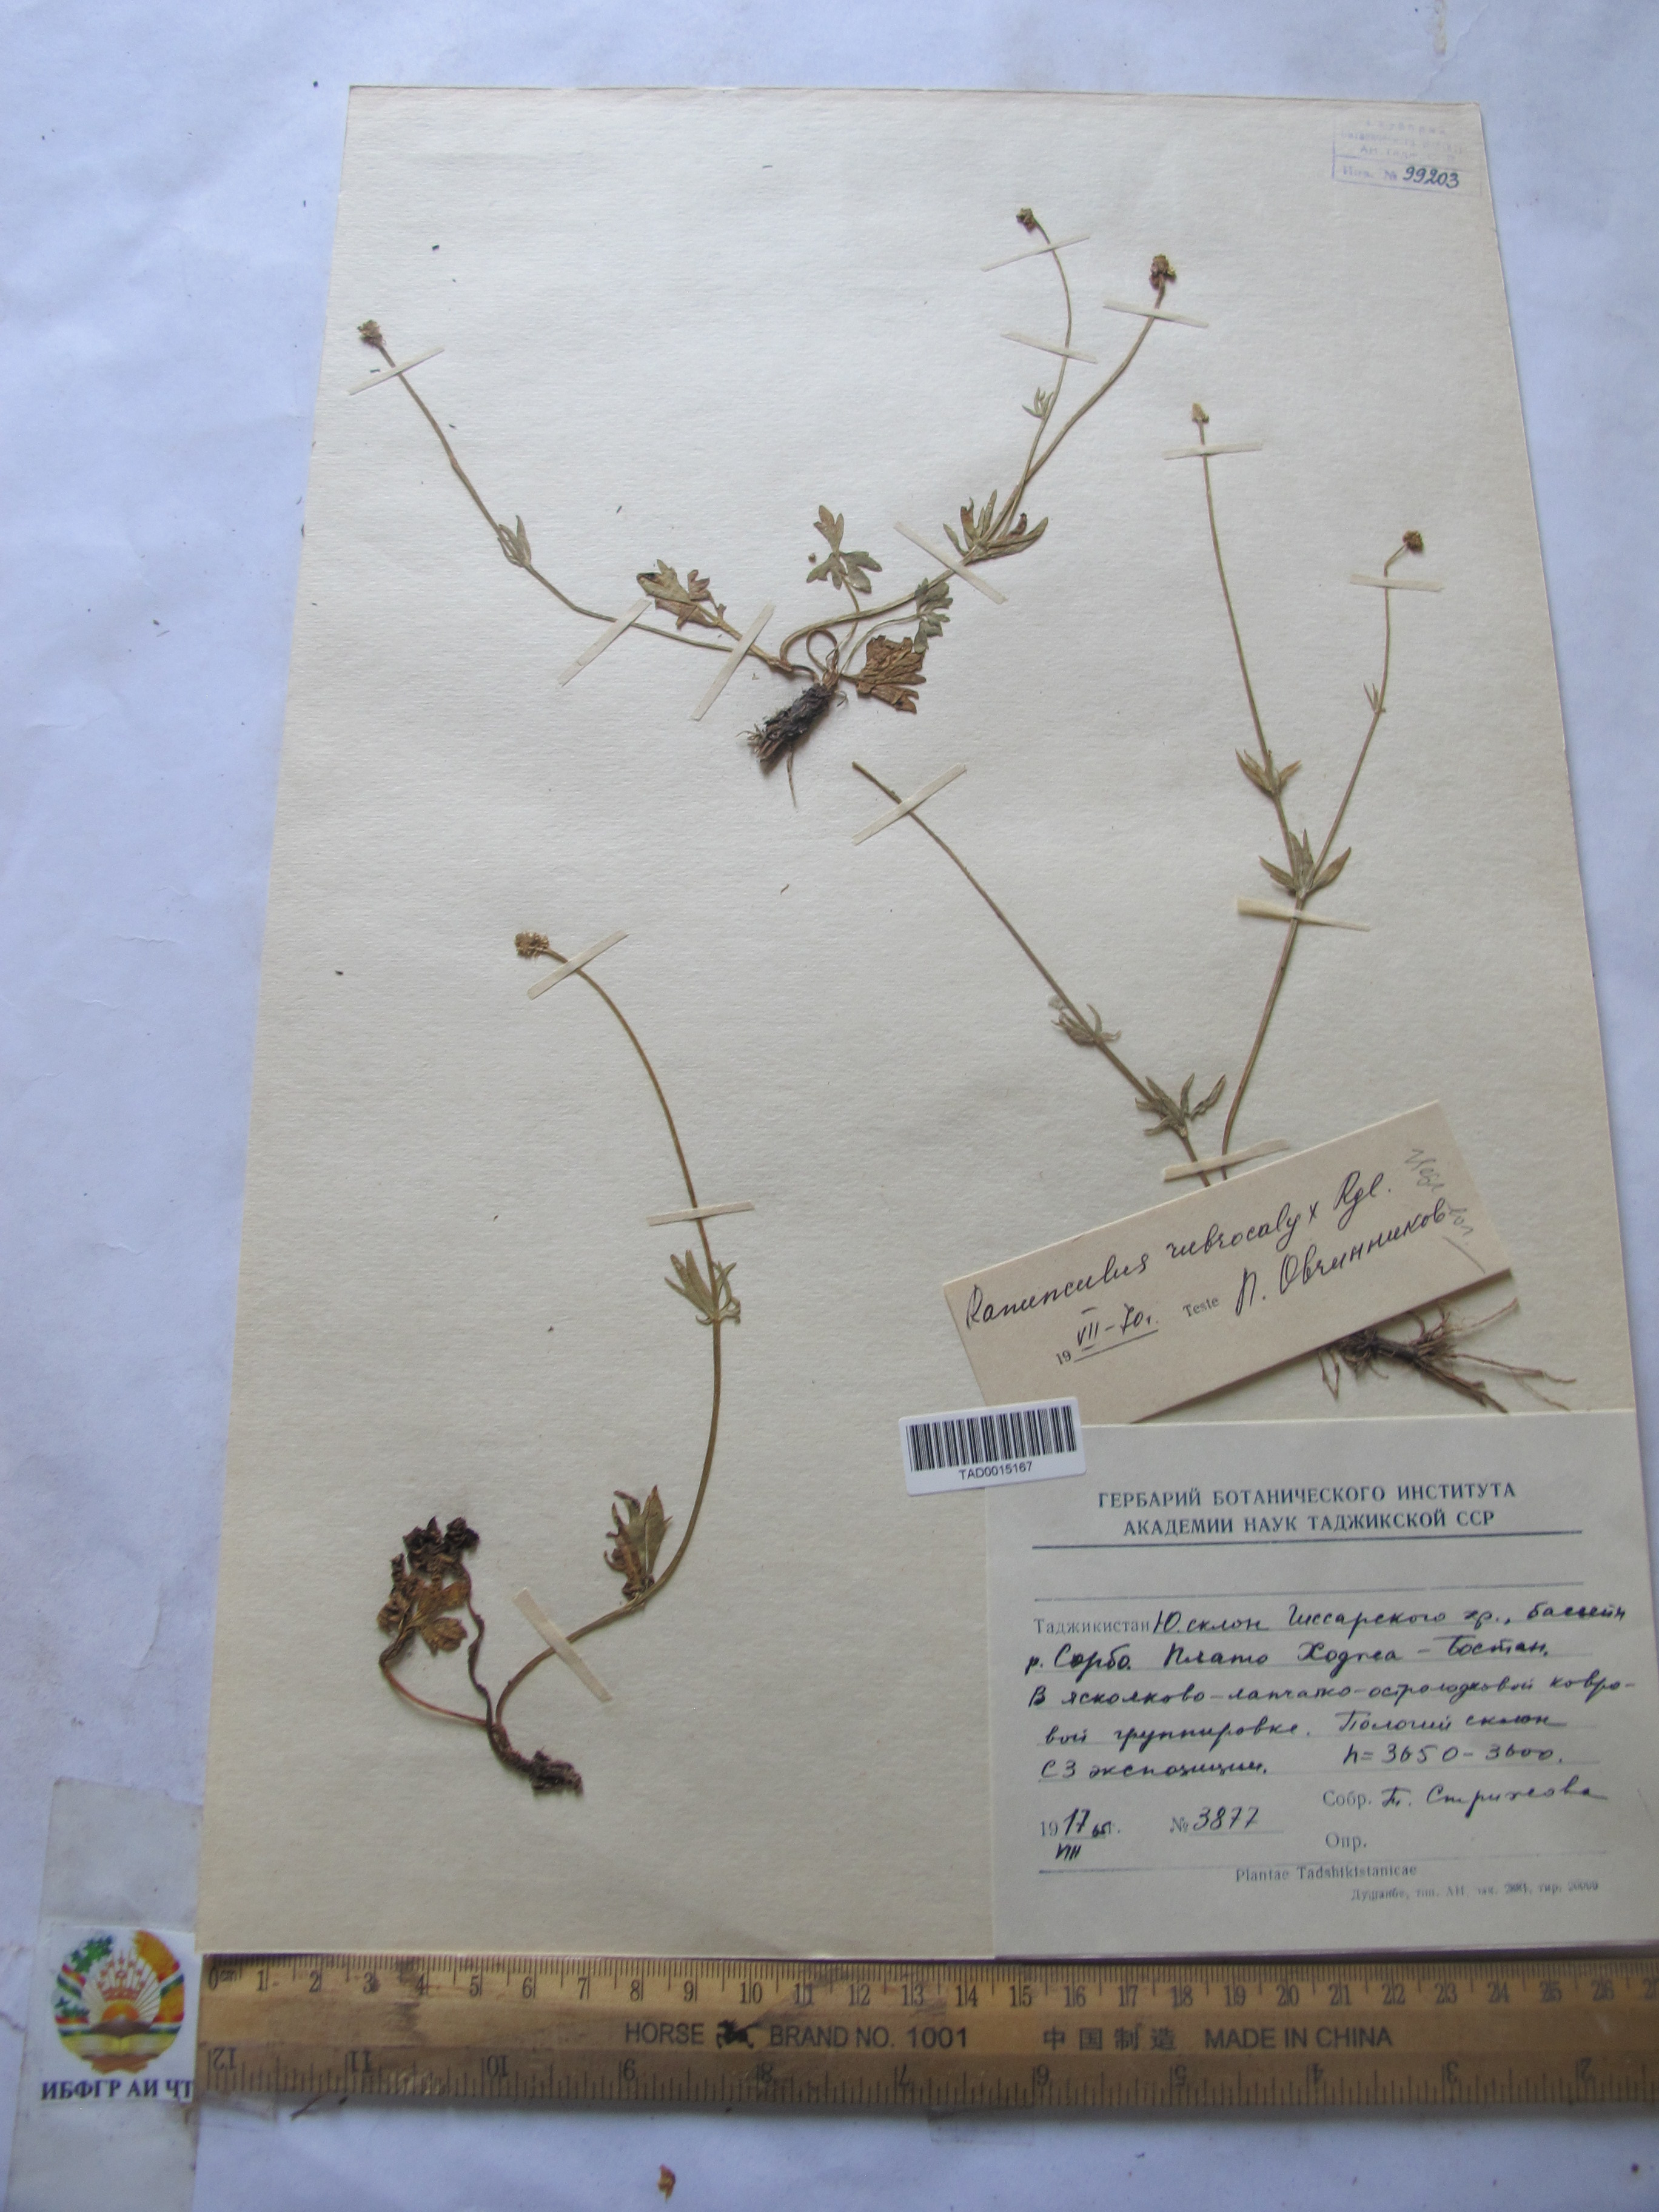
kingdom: Plantae
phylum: Tracheophyta
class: Magnoliopsida
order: Ranunculales
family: Ranunculaceae
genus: Ranunculus
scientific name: Ranunculus rubrocalyx
